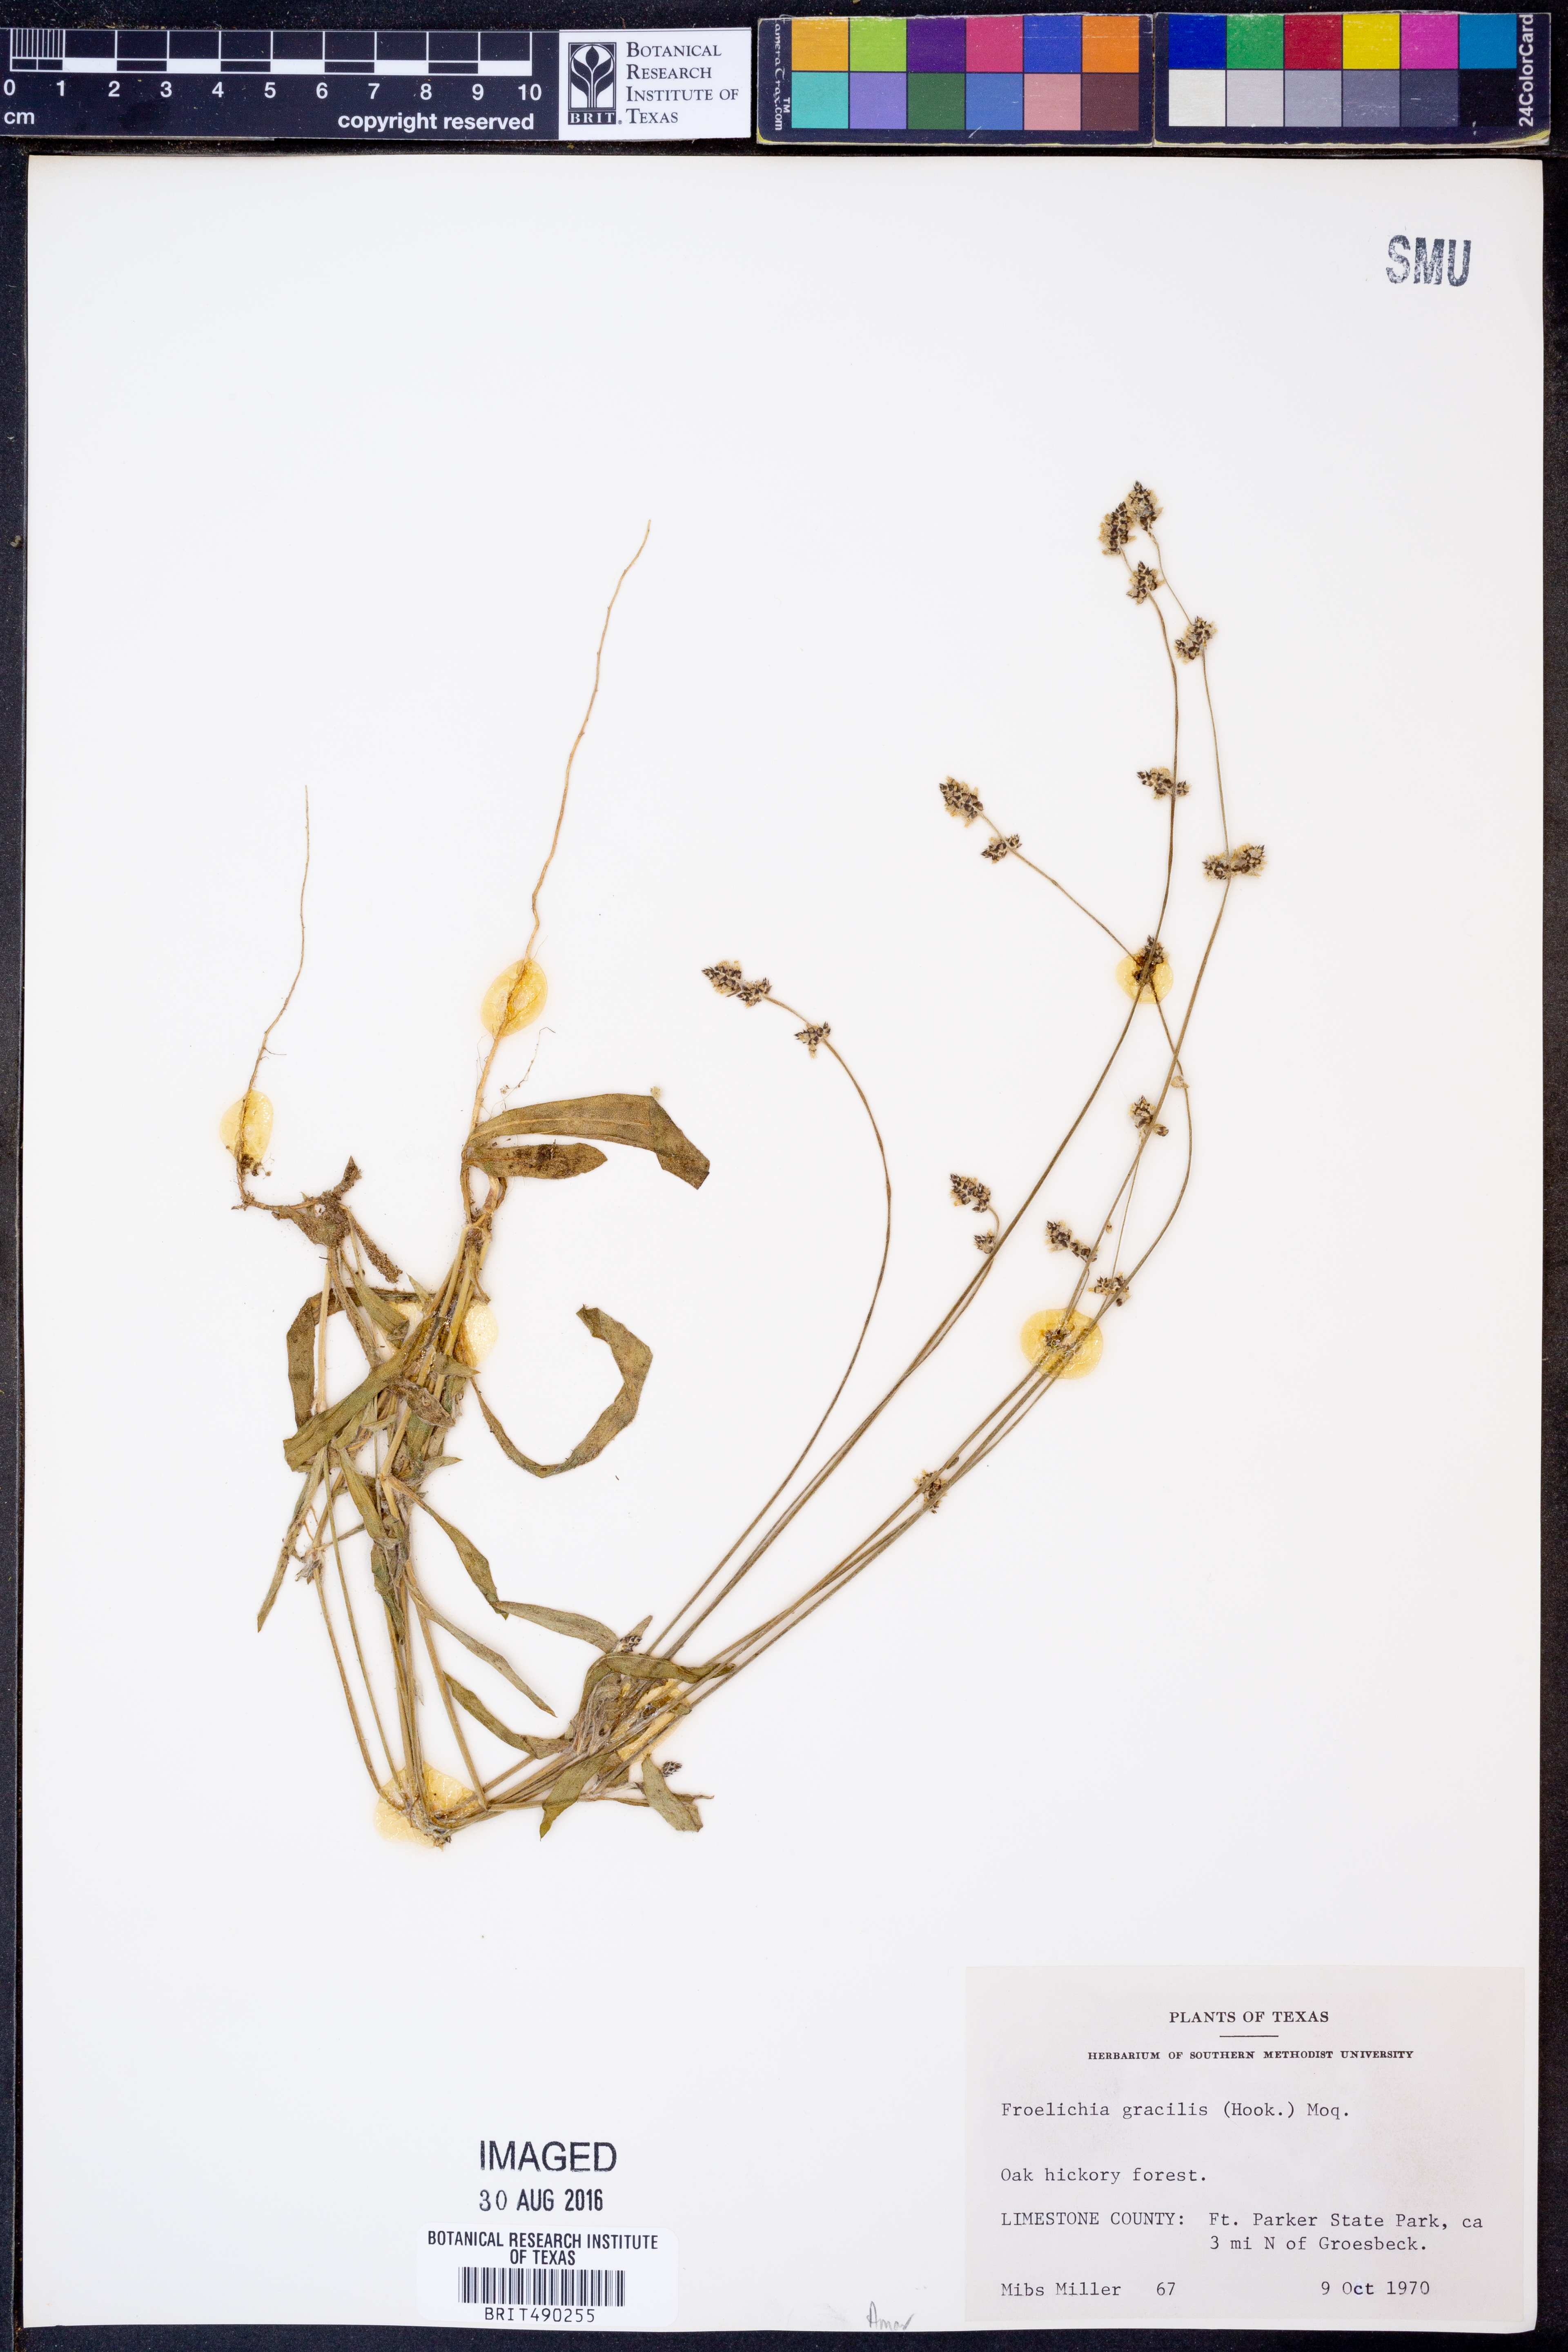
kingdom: Plantae
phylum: Tracheophyta
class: Magnoliopsida
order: Caryophyllales
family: Amaranthaceae
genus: Froelichia
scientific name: Froelichia gracilis
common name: Slender cottonweed
